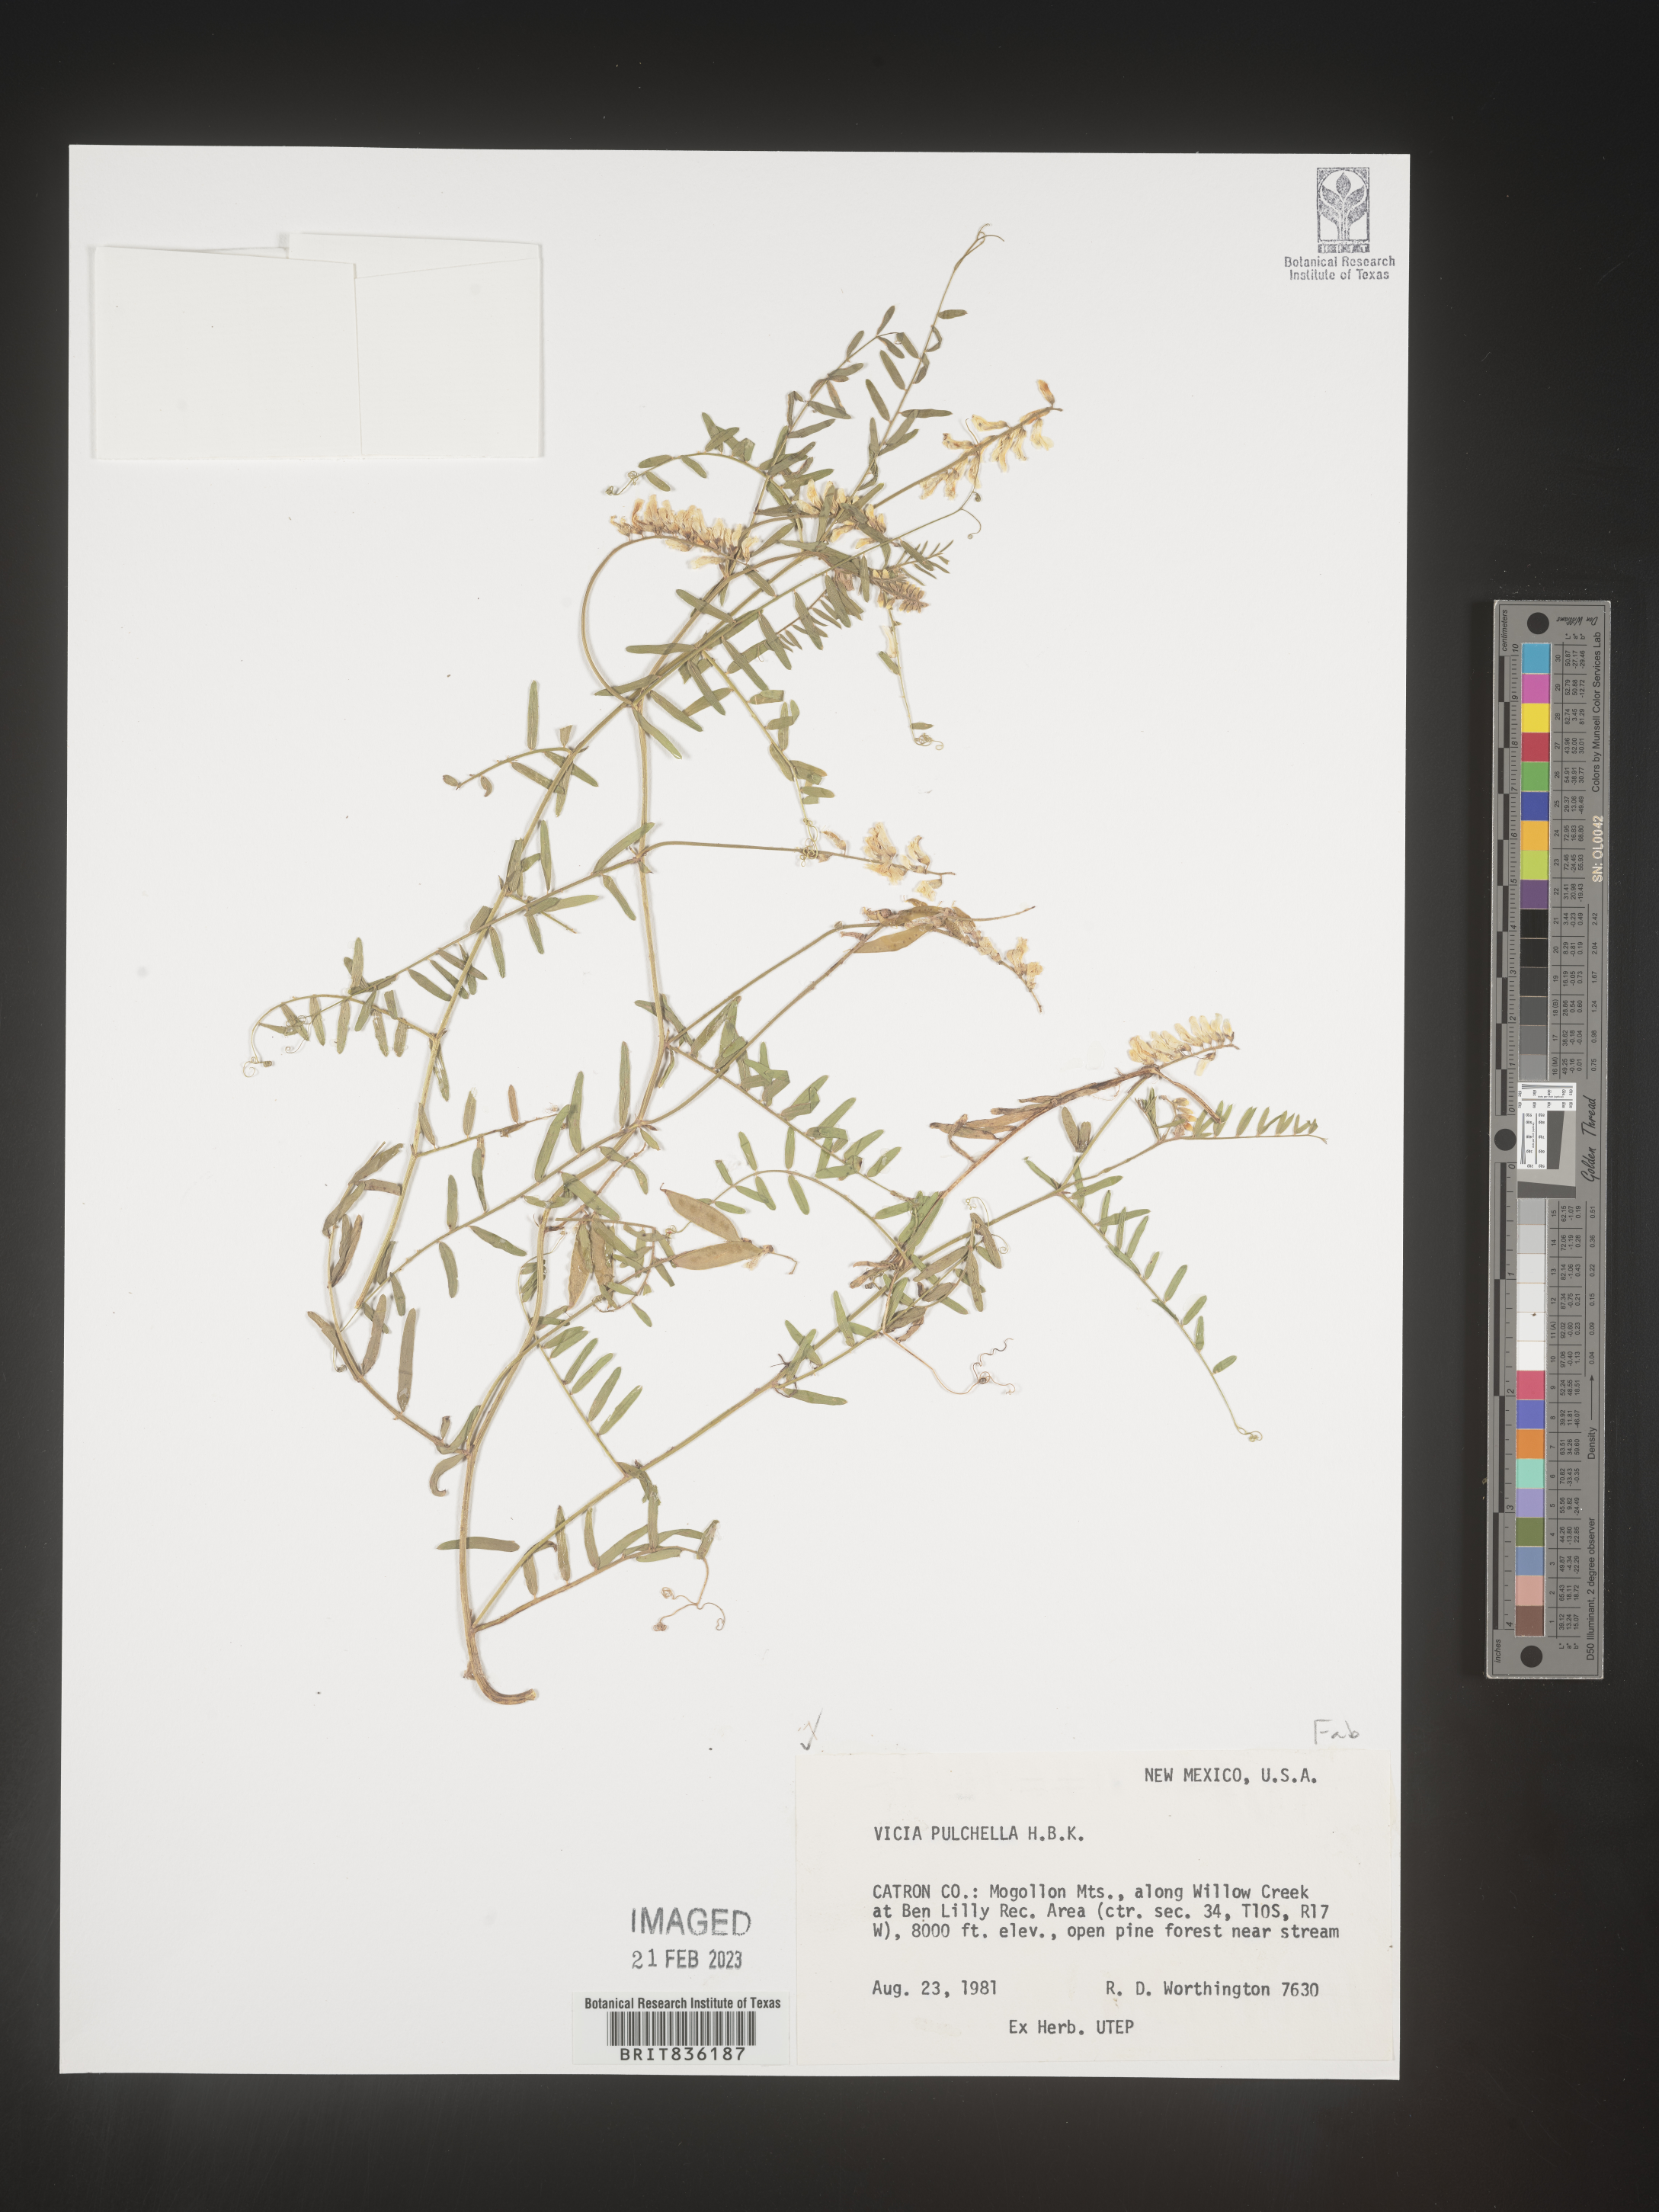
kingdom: Plantae
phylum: Tracheophyta
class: Magnoliopsida
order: Fabales
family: Fabaceae
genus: Vicia
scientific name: Vicia
